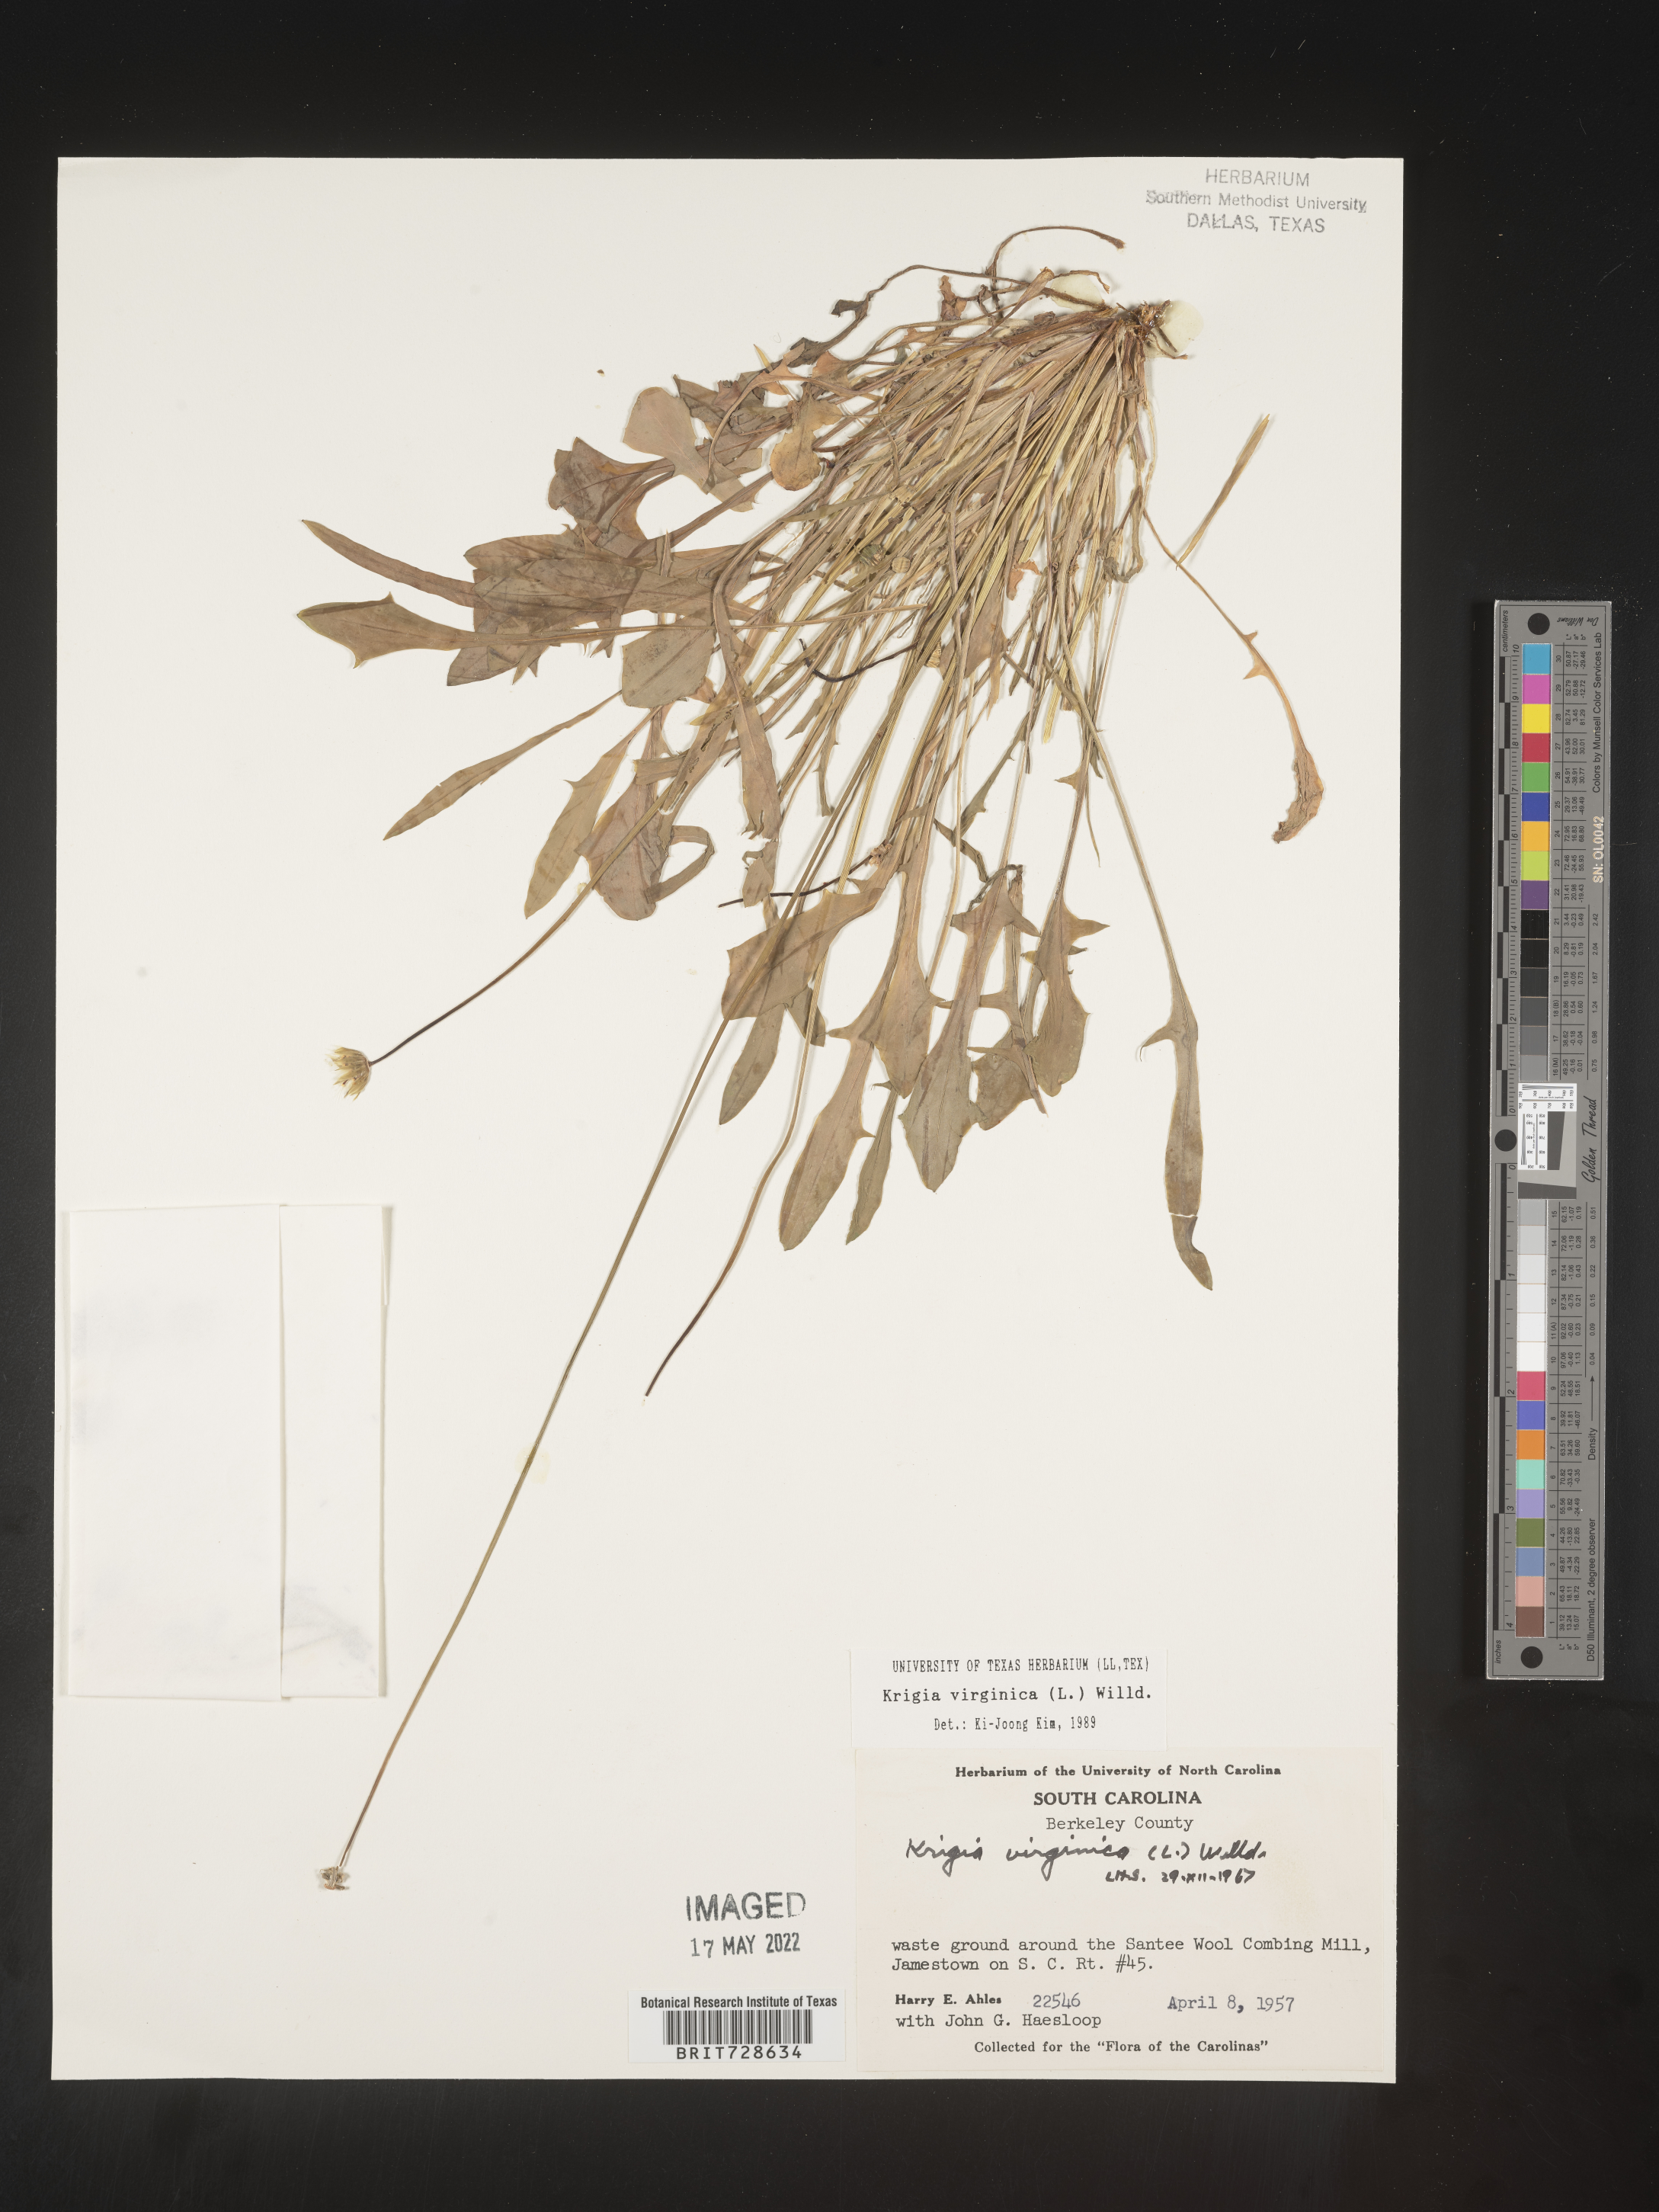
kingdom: Plantae
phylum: Tracheophyta
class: Magnoliopsida
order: Asterales
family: Asteraceae
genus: Krigia
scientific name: Krigia virginica
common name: Virginia dwarf-dandelion
